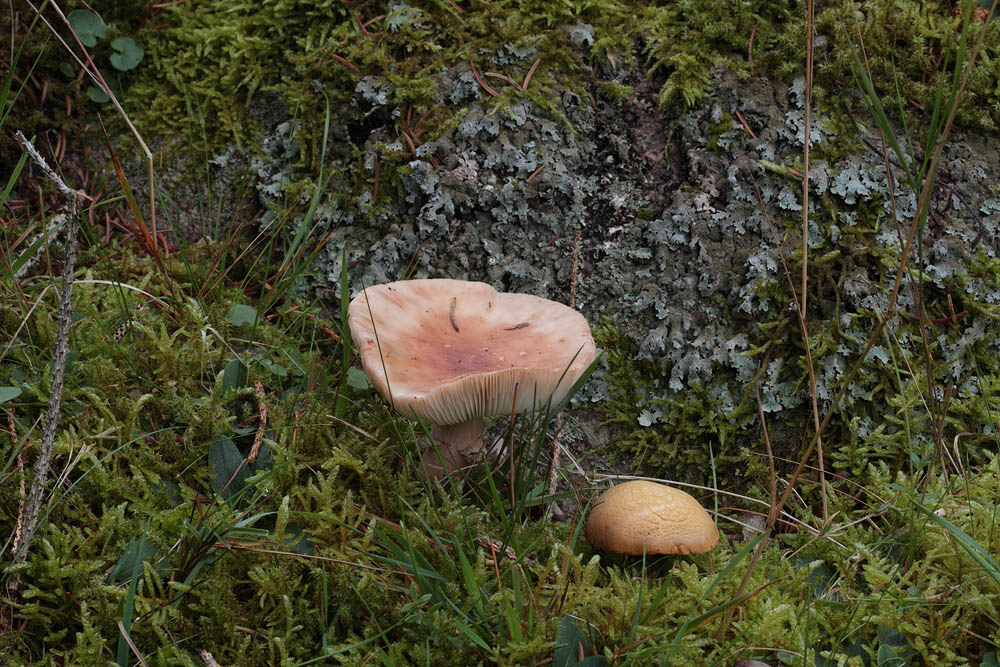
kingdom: Fungi
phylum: Basidiomycota
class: Agaricomycetes
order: Agaricales
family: Amanitaceae
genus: Amanita
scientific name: Amanita rubescens
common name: rødmende fluesvamp
